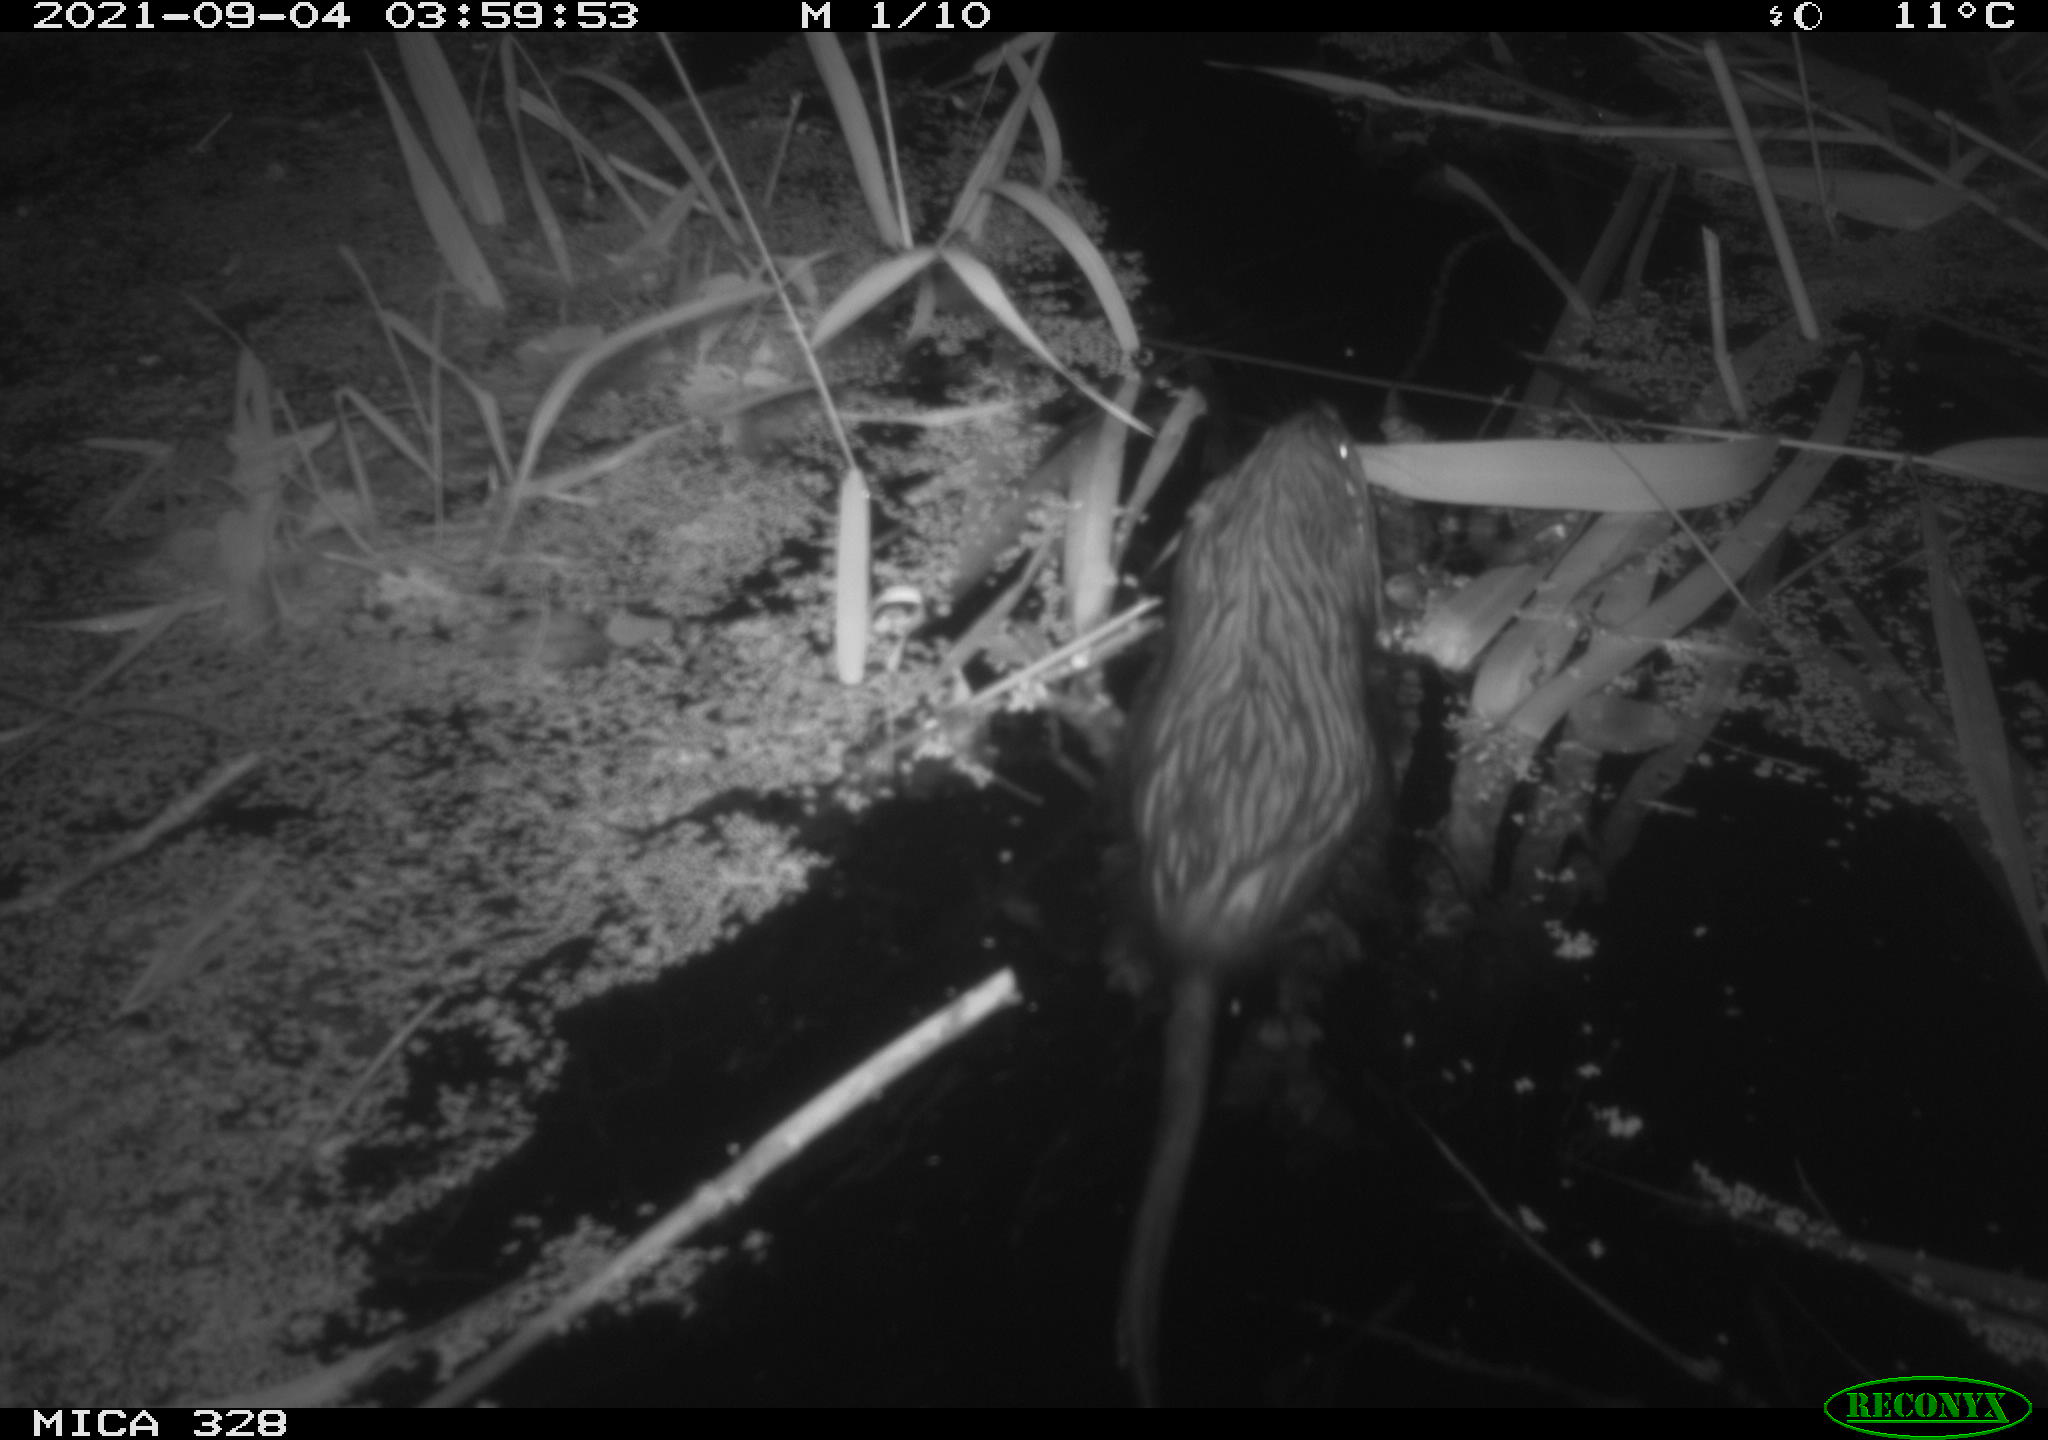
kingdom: Animalia
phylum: Chordata
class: Mammalia
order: Rodentia
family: Cricetidae
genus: Ondatra
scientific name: Ondatra zibethicus
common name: Muskrat
